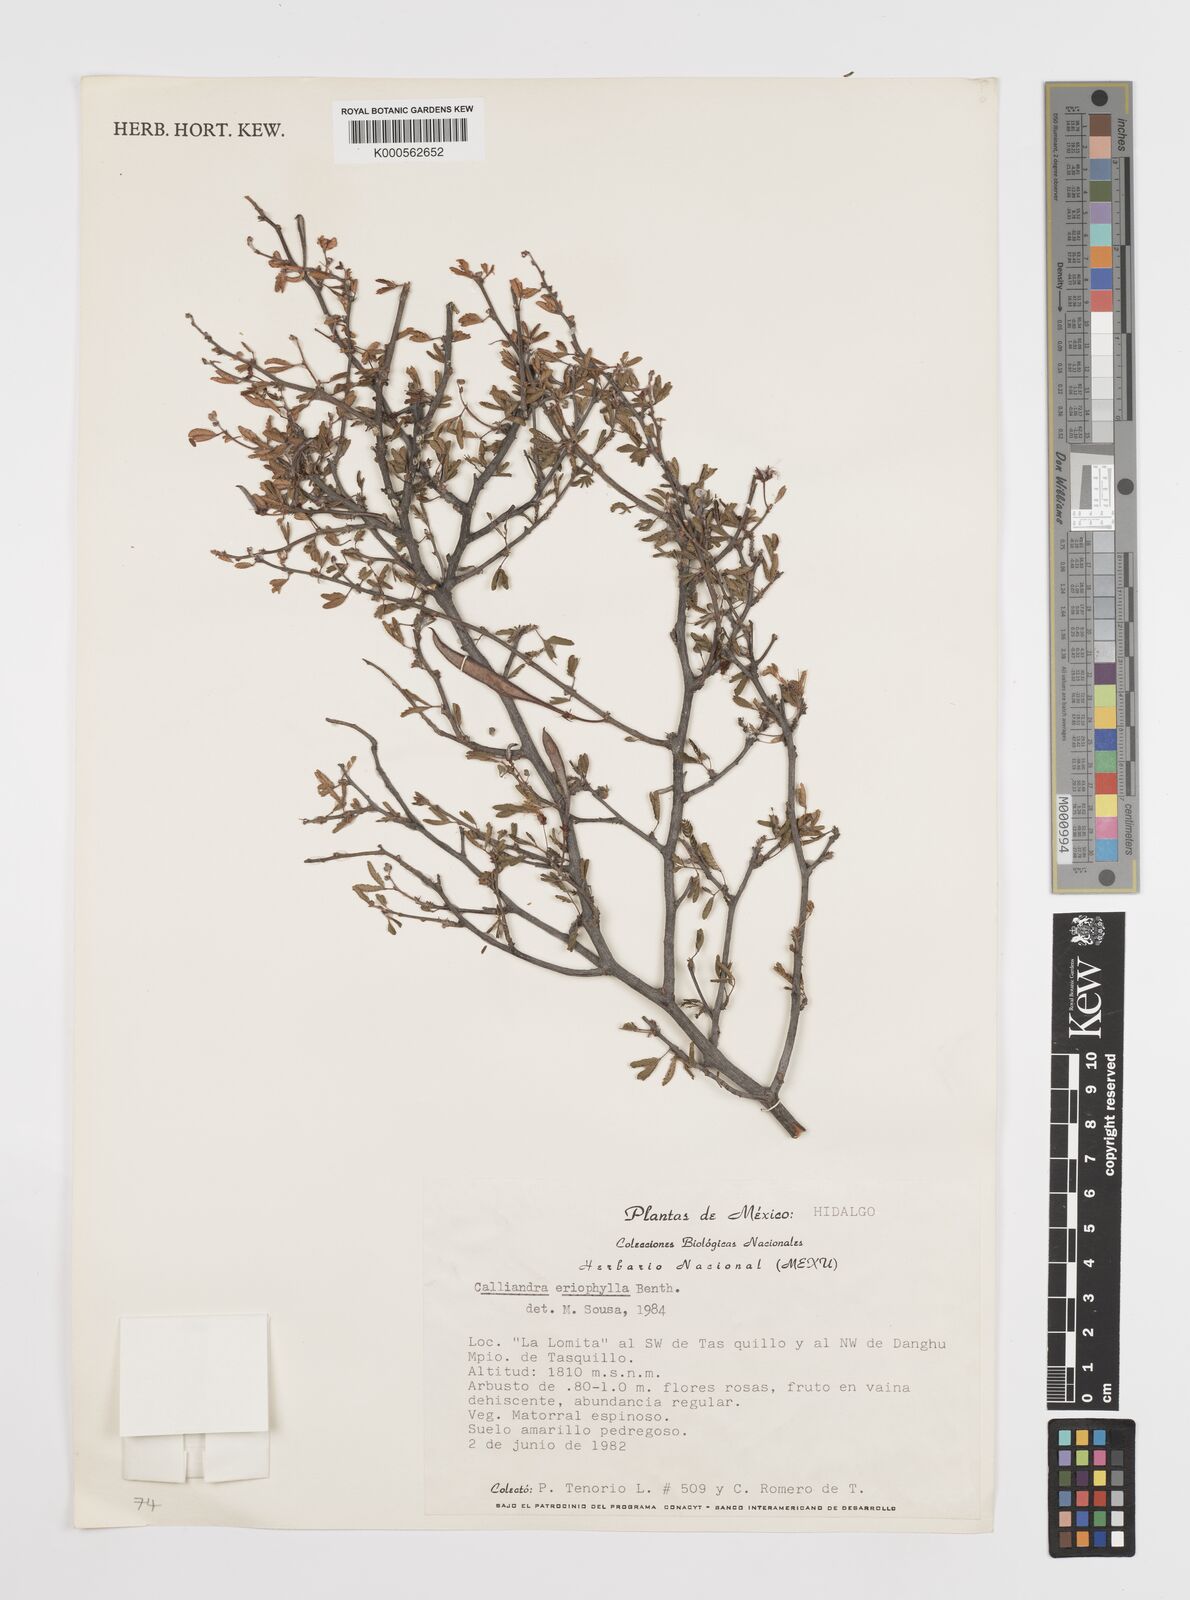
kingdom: Plantae
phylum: Tracheophyta
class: Magnoliopsida
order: Fabales
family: Fabaceae
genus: Calliandra
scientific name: Calliandra eriophylla
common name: Fairy-duster
